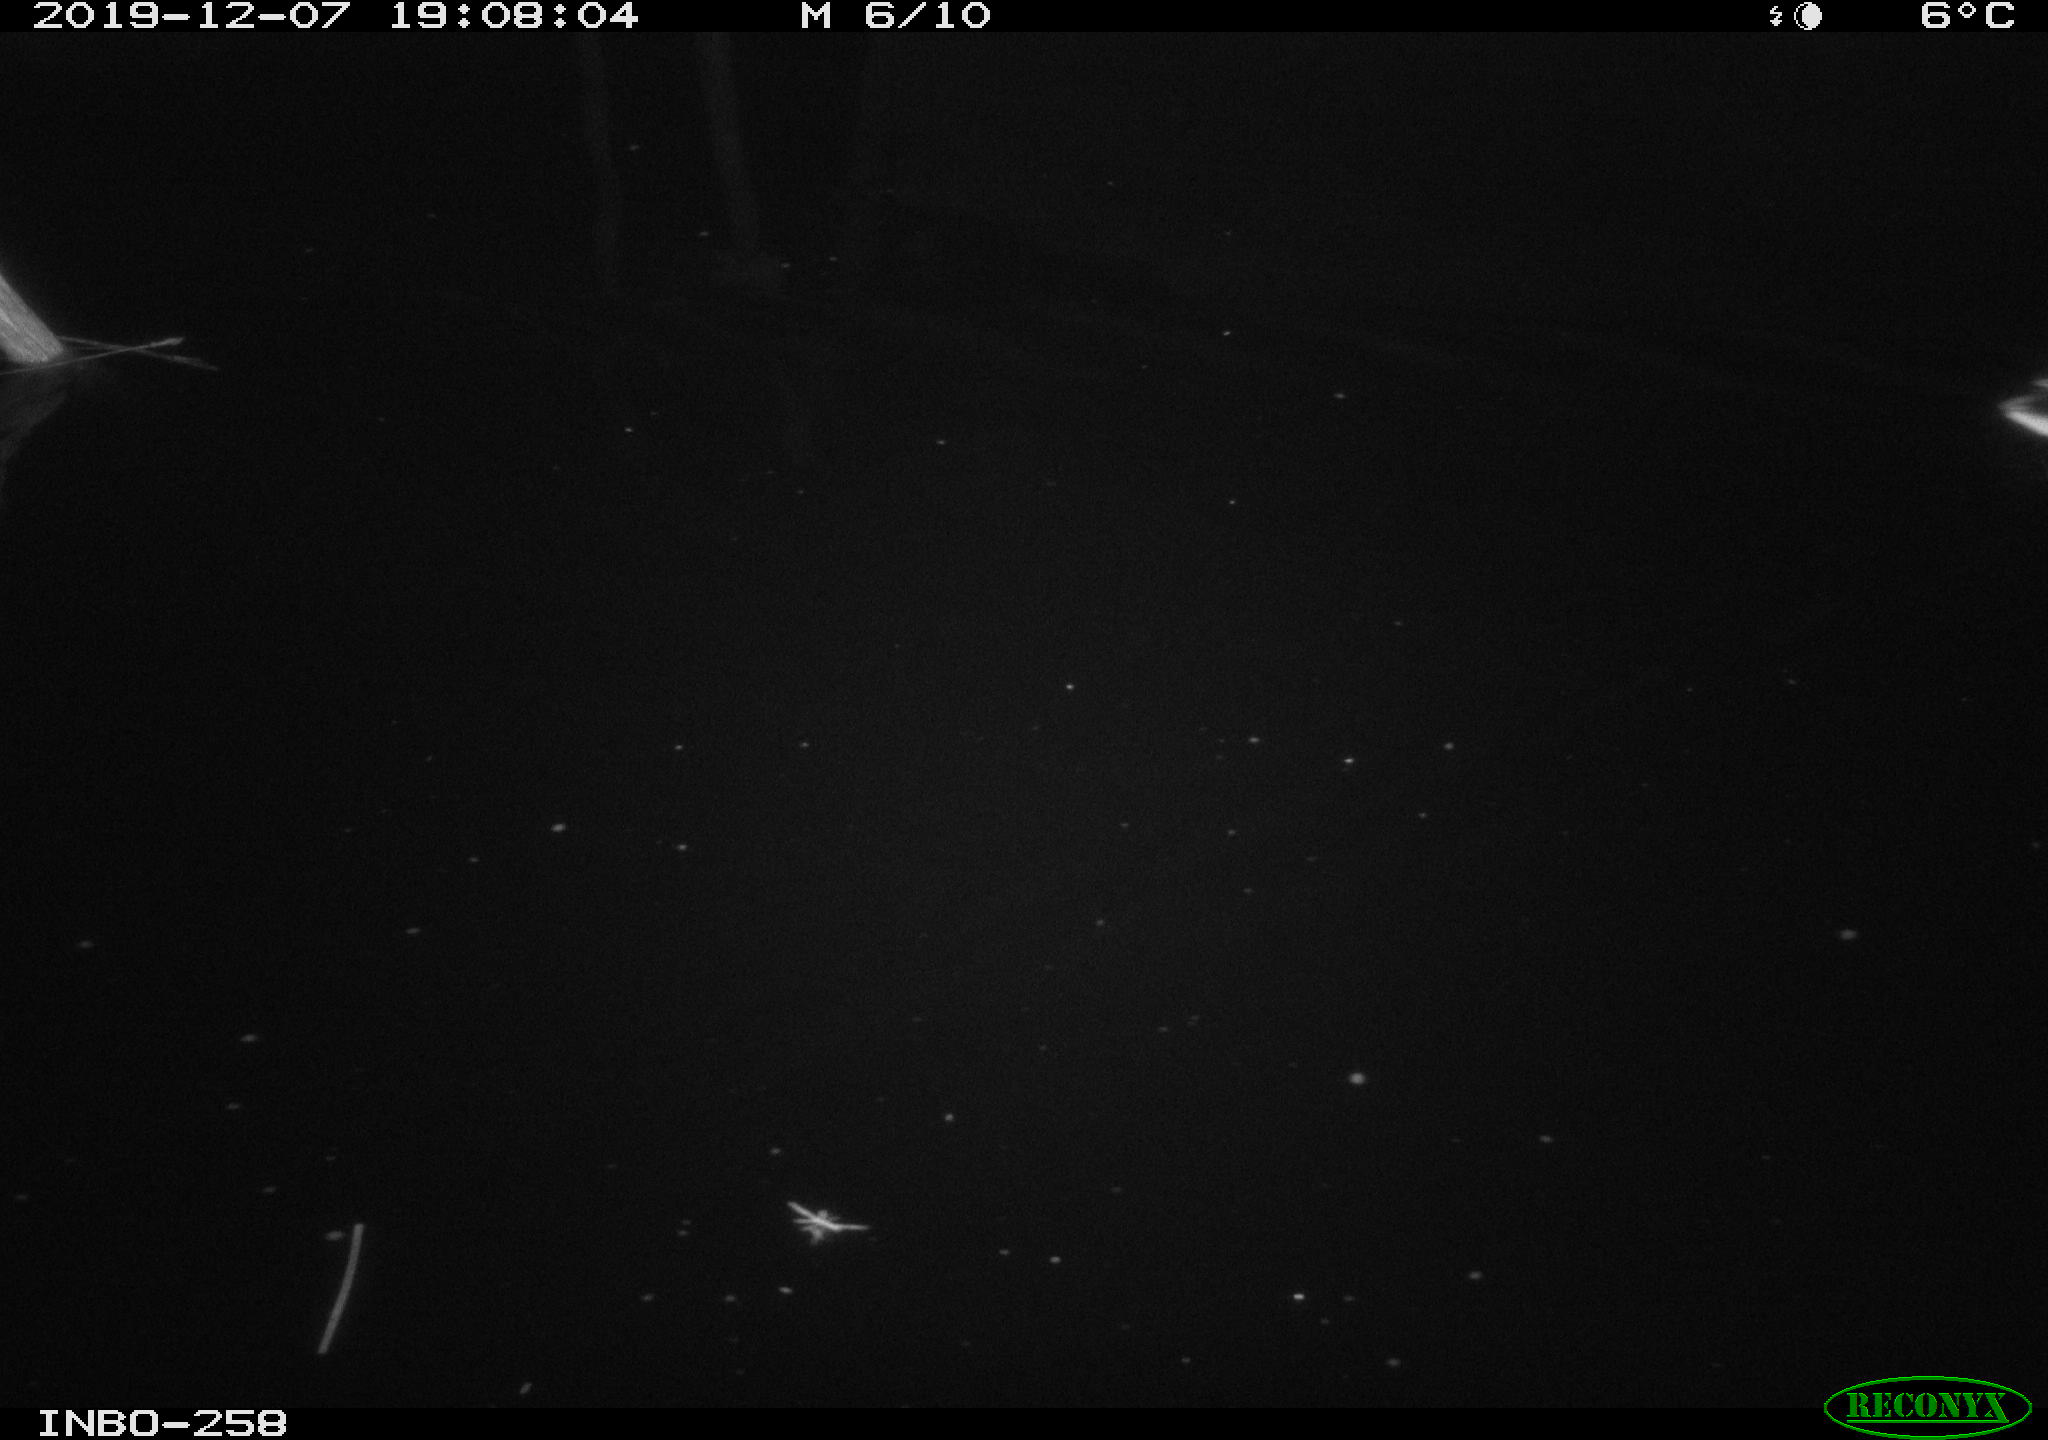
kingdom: Animalia
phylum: Chordata
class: Aves
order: Anseriformes
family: Anatidae
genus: Anas
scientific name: Anas platyrhynchos
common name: Mallard
